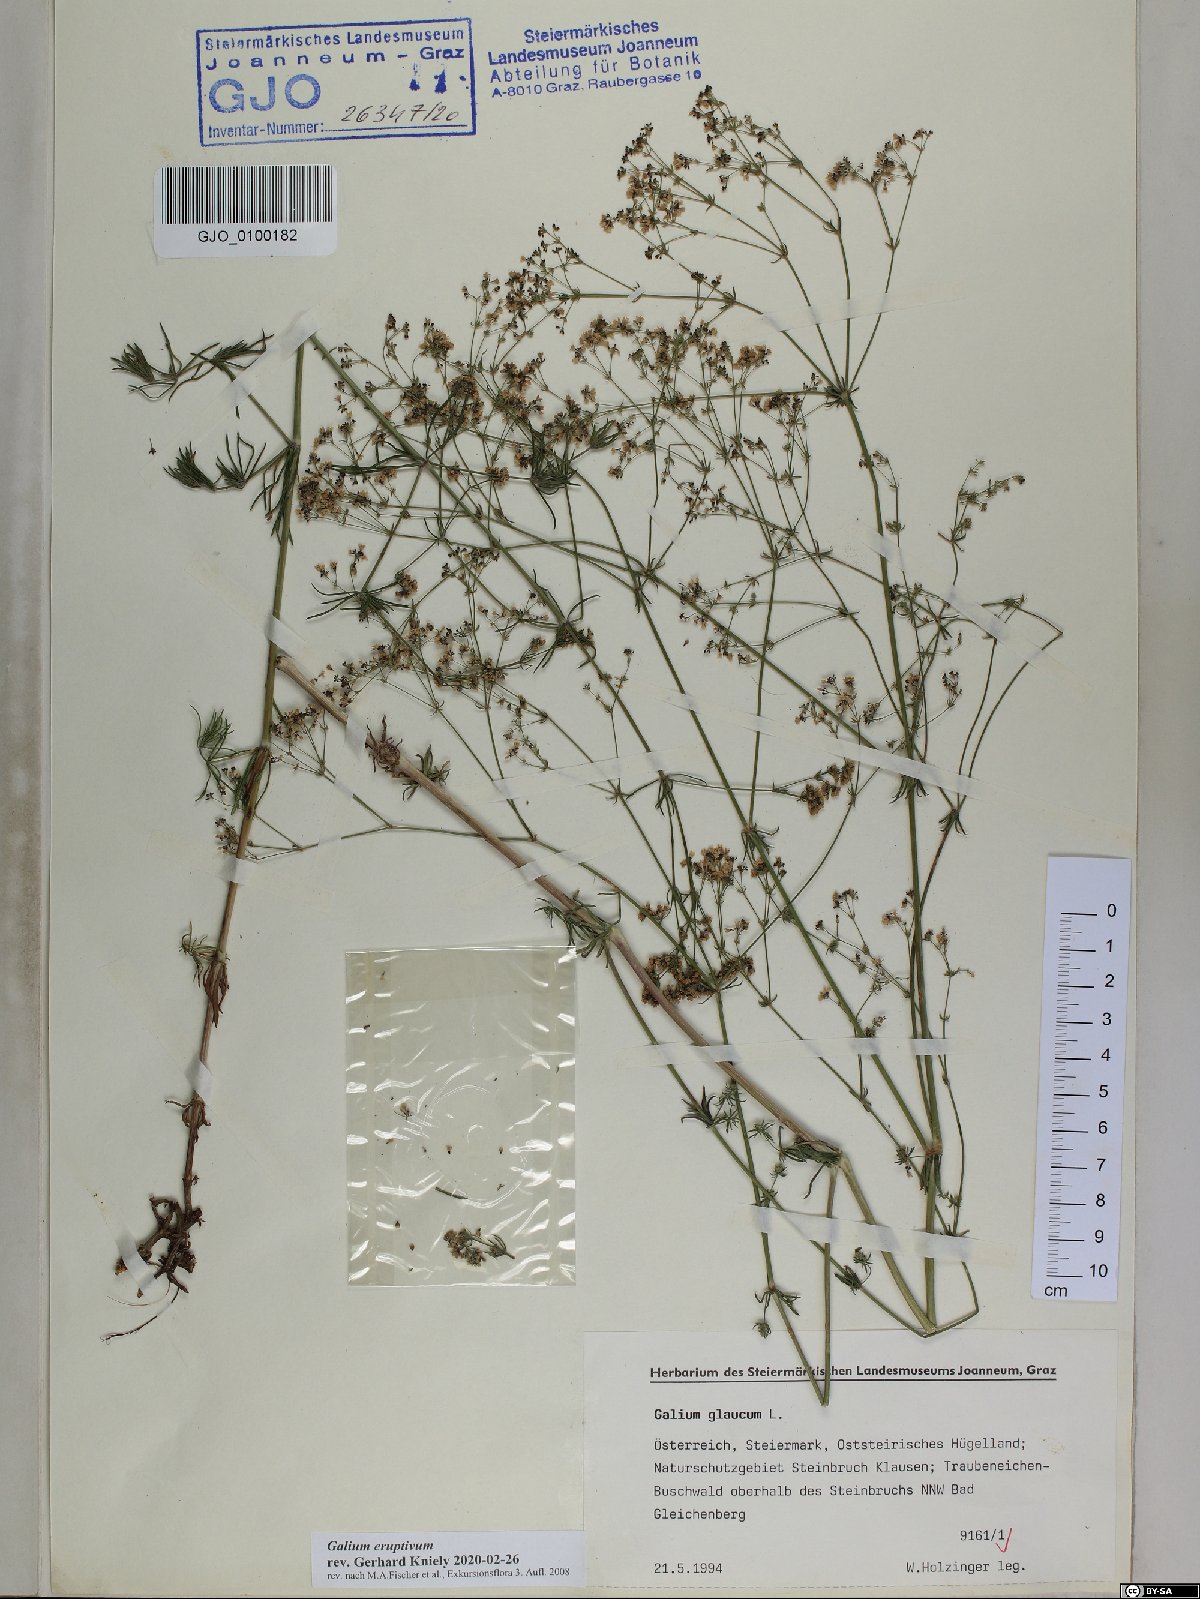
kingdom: Plantae
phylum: Tracheophyta
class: Magnoliopsida
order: Gentianales
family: Rubiaceae
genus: Galium
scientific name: Galium eruptivum
